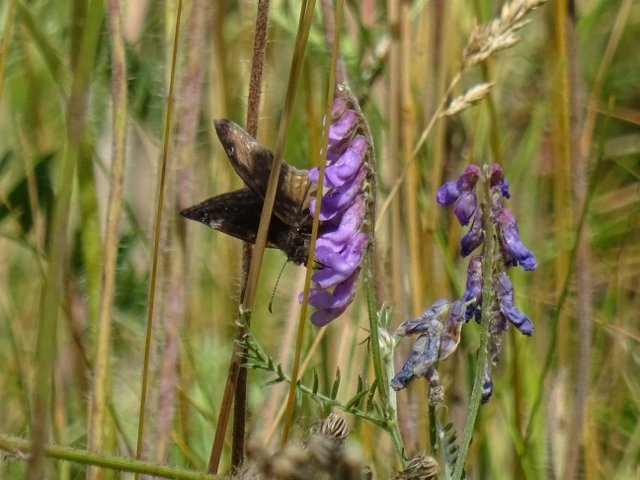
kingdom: Animalia
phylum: Arthropoda
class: Insecta
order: Lepidoptera
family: Hesperiidae
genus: Gesta
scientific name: Gesta
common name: Wild Indigo Duskywing
